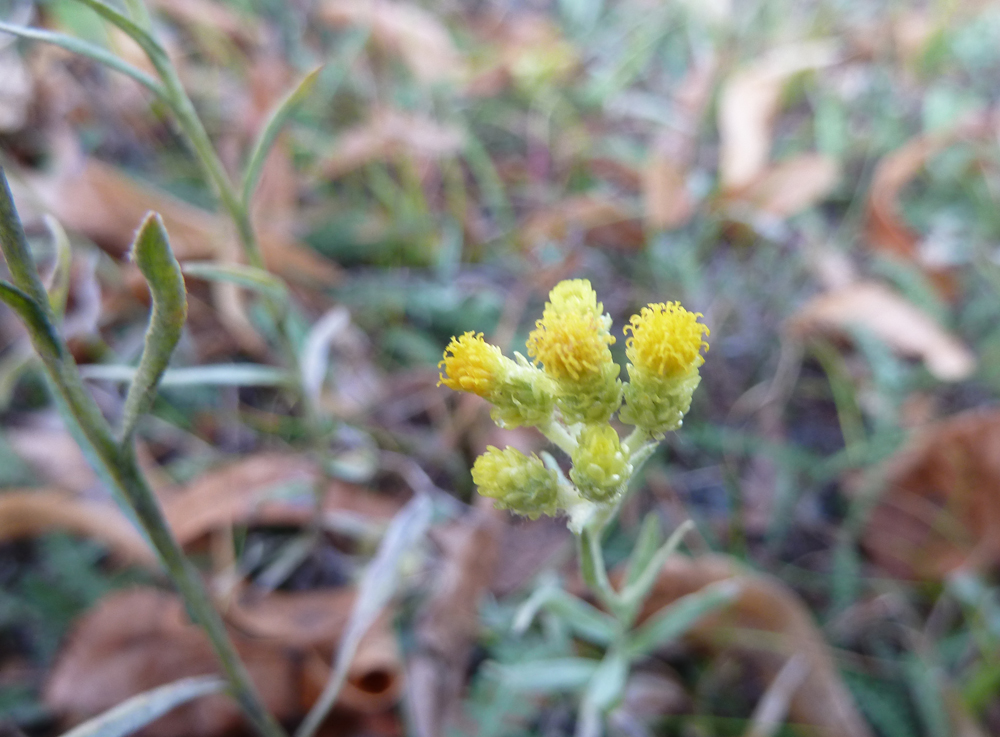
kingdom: Plantae
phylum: Tracheophyta
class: Magnoliopsida
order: Asterales
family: Asteraceae
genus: Helichrysum
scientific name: Helichrysum arenarium
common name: Strawflower
